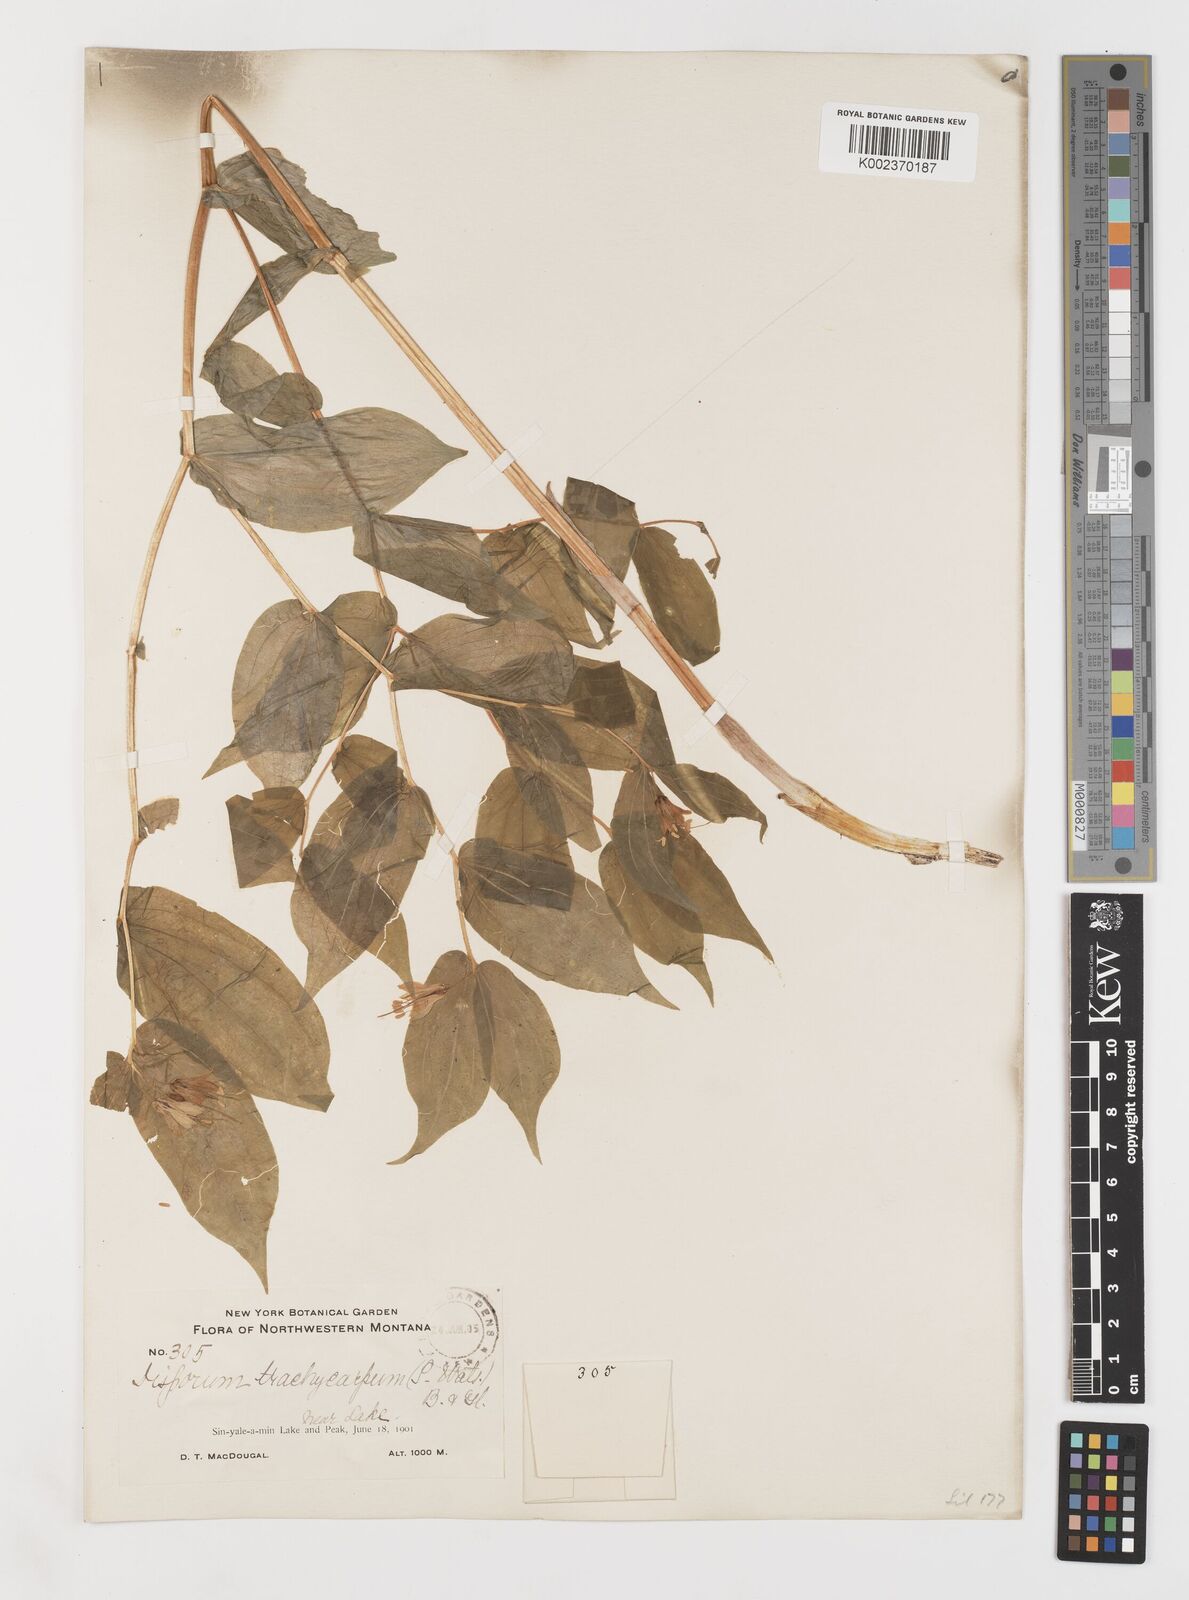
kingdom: Plantae
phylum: Tracheophyta
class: Liliopsida
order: Liliales
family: Liliaceae
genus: Prosartes
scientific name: Prosartes trachycarpa
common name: Rough-fruit fairy-bells
